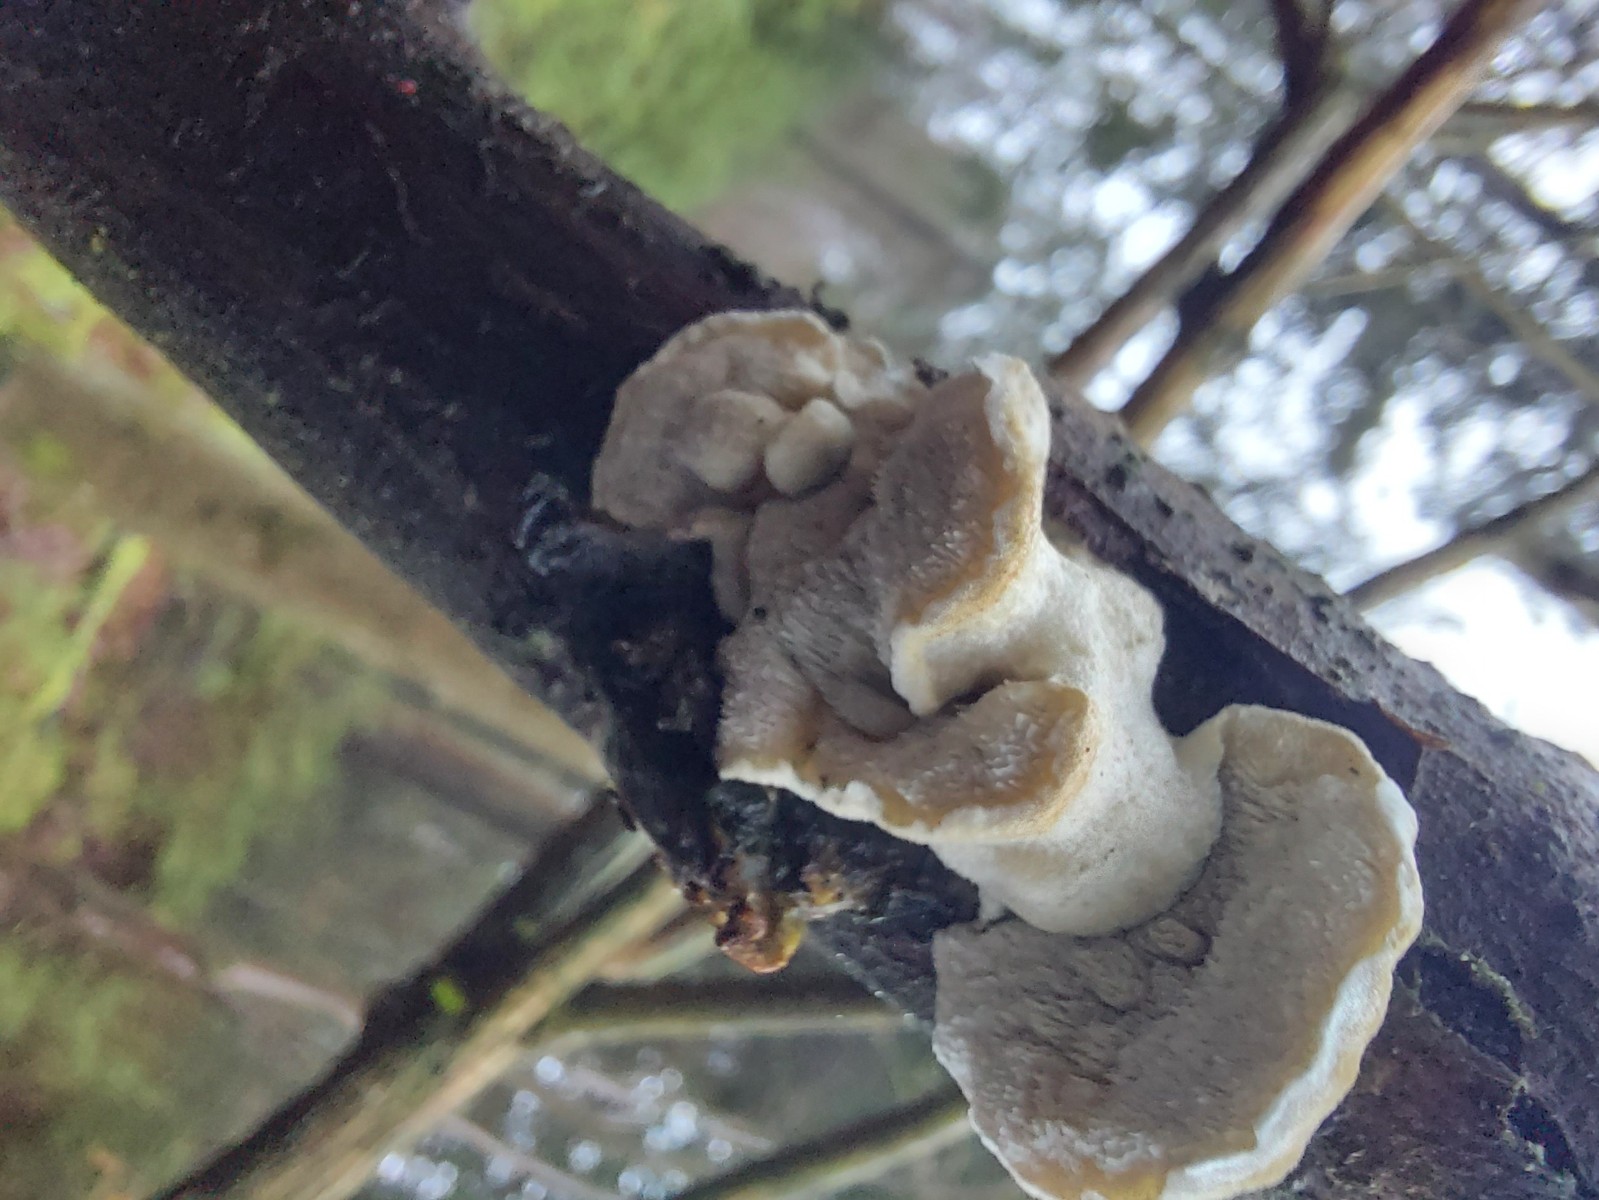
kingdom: Fungi
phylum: Basidiomycota
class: Agaricomycetes
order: Polyporales
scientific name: Polyporales
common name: poresvampordenen
